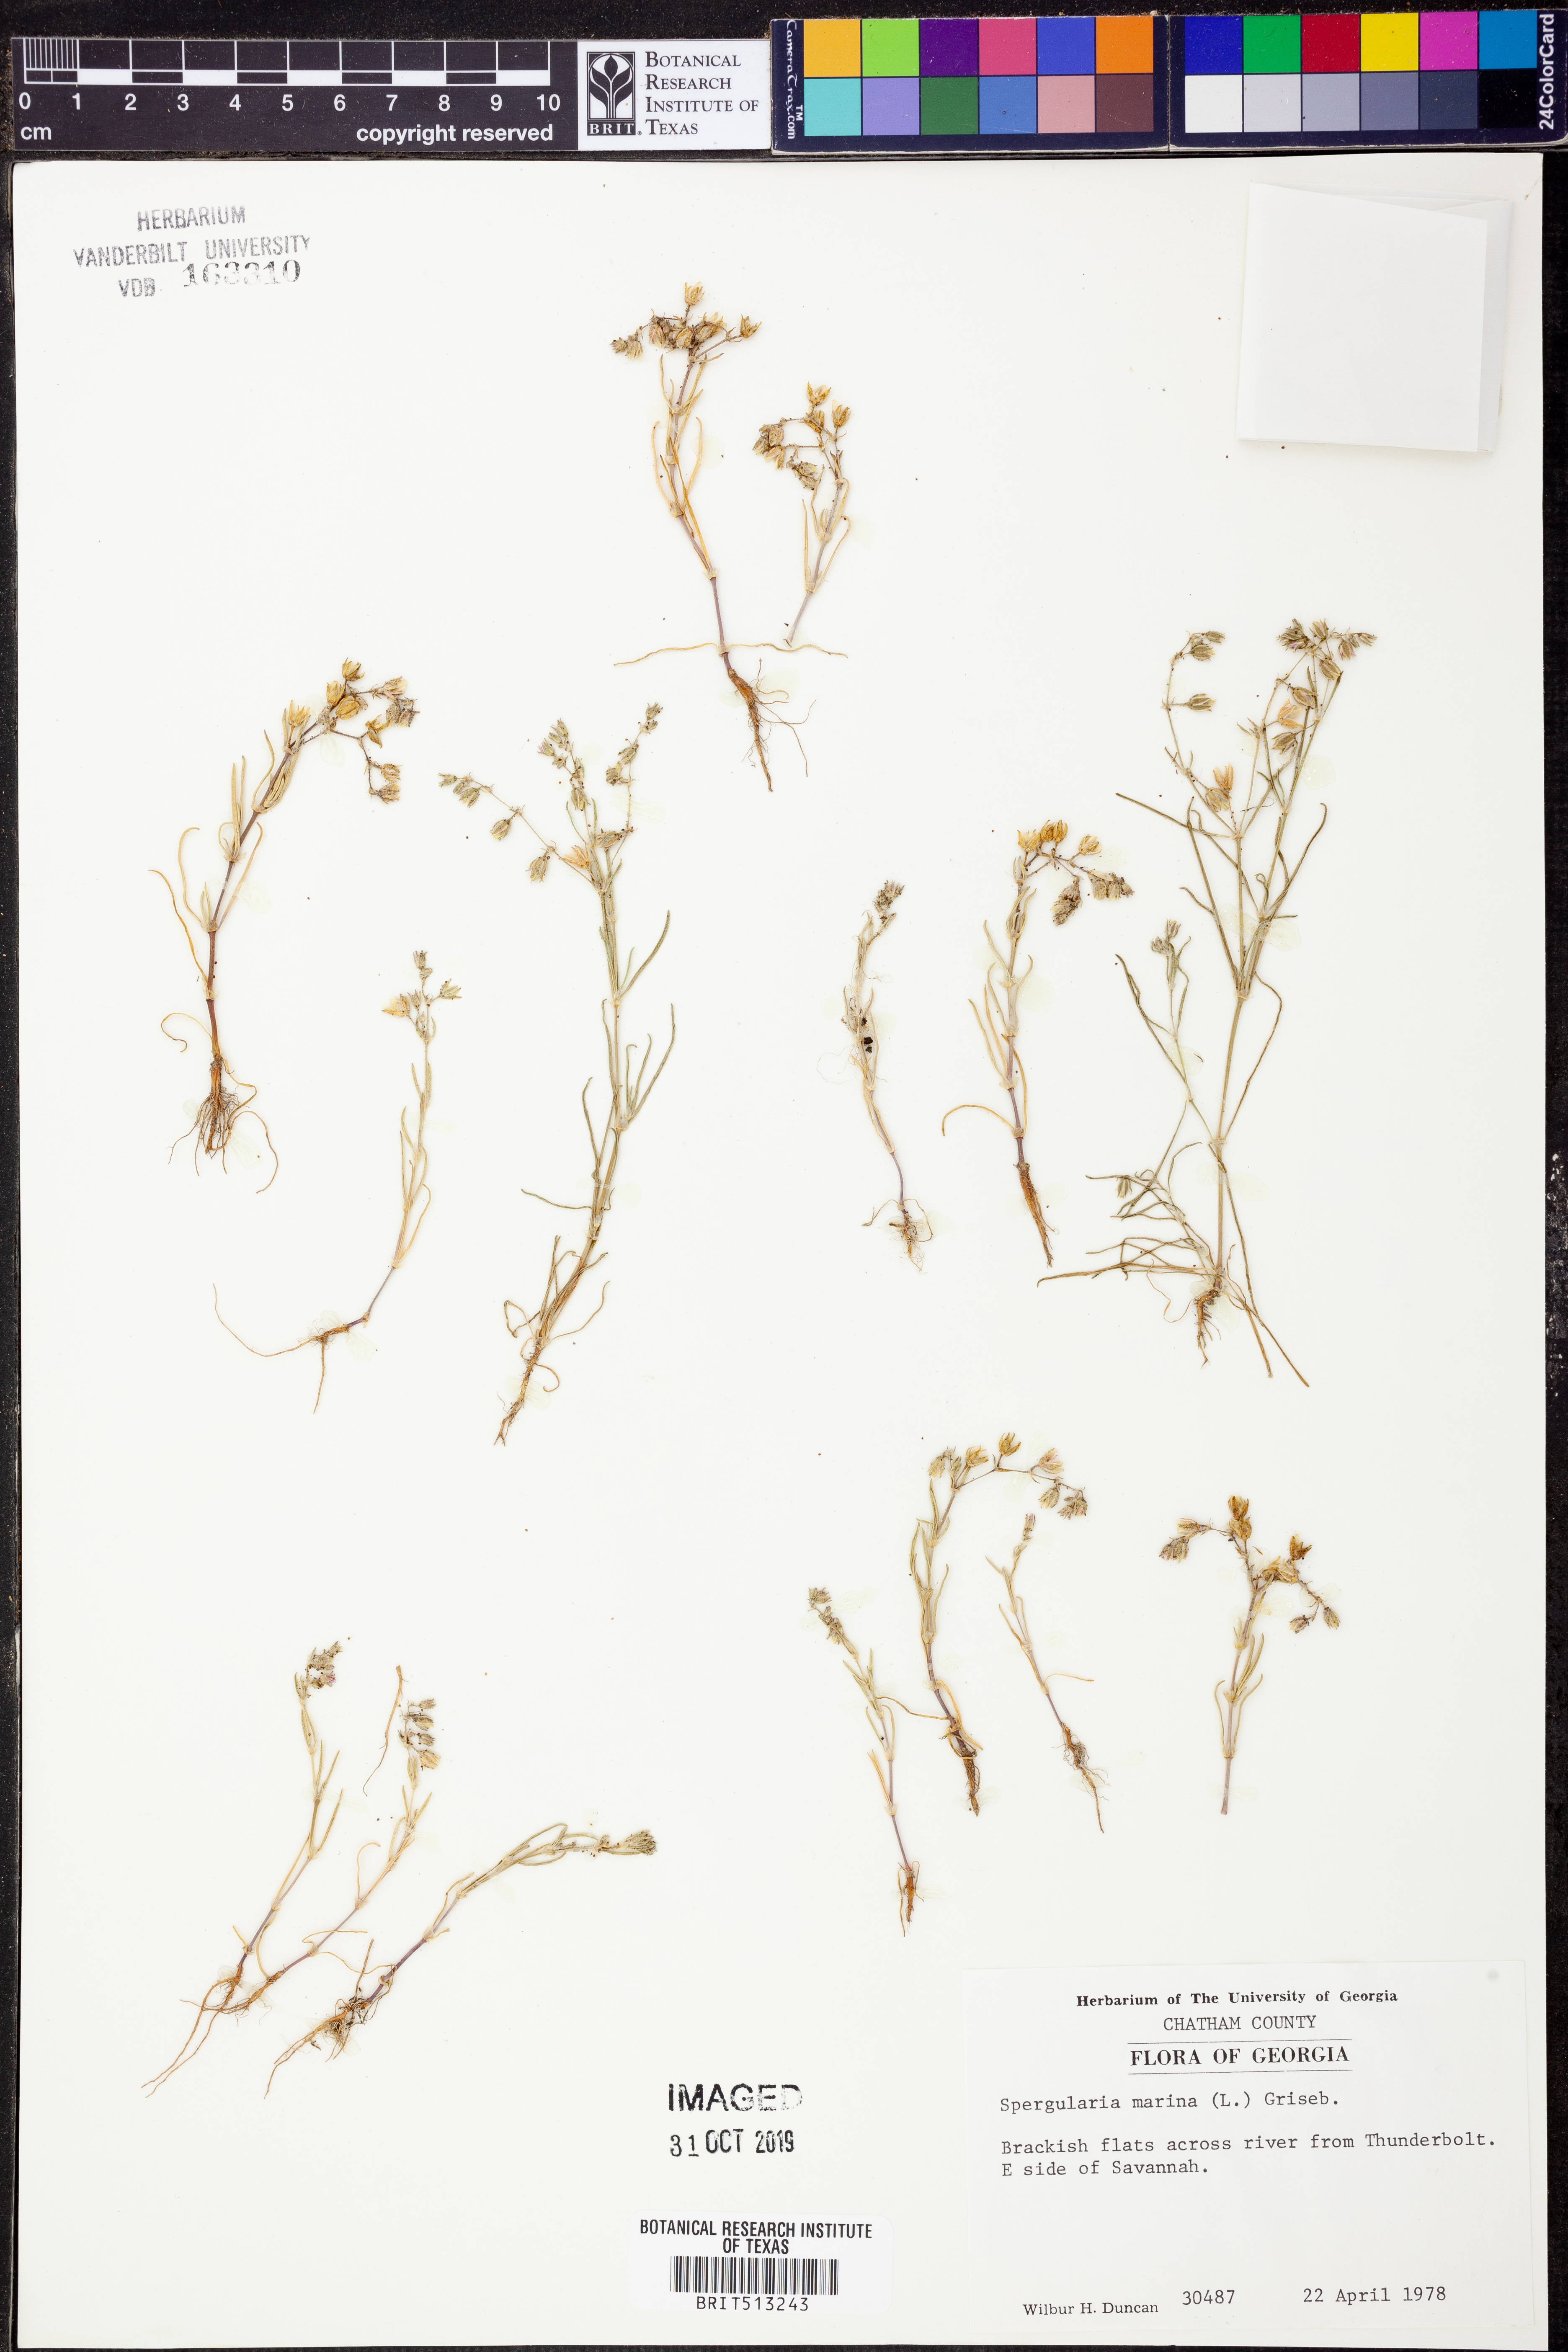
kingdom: Plantae
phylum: Tracheophyta
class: Magnoliopsida
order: Caryophyllales
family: Caryophyllaceae
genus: Spergularia
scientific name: Spergularia marina
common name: Lesser sea-spurrey
